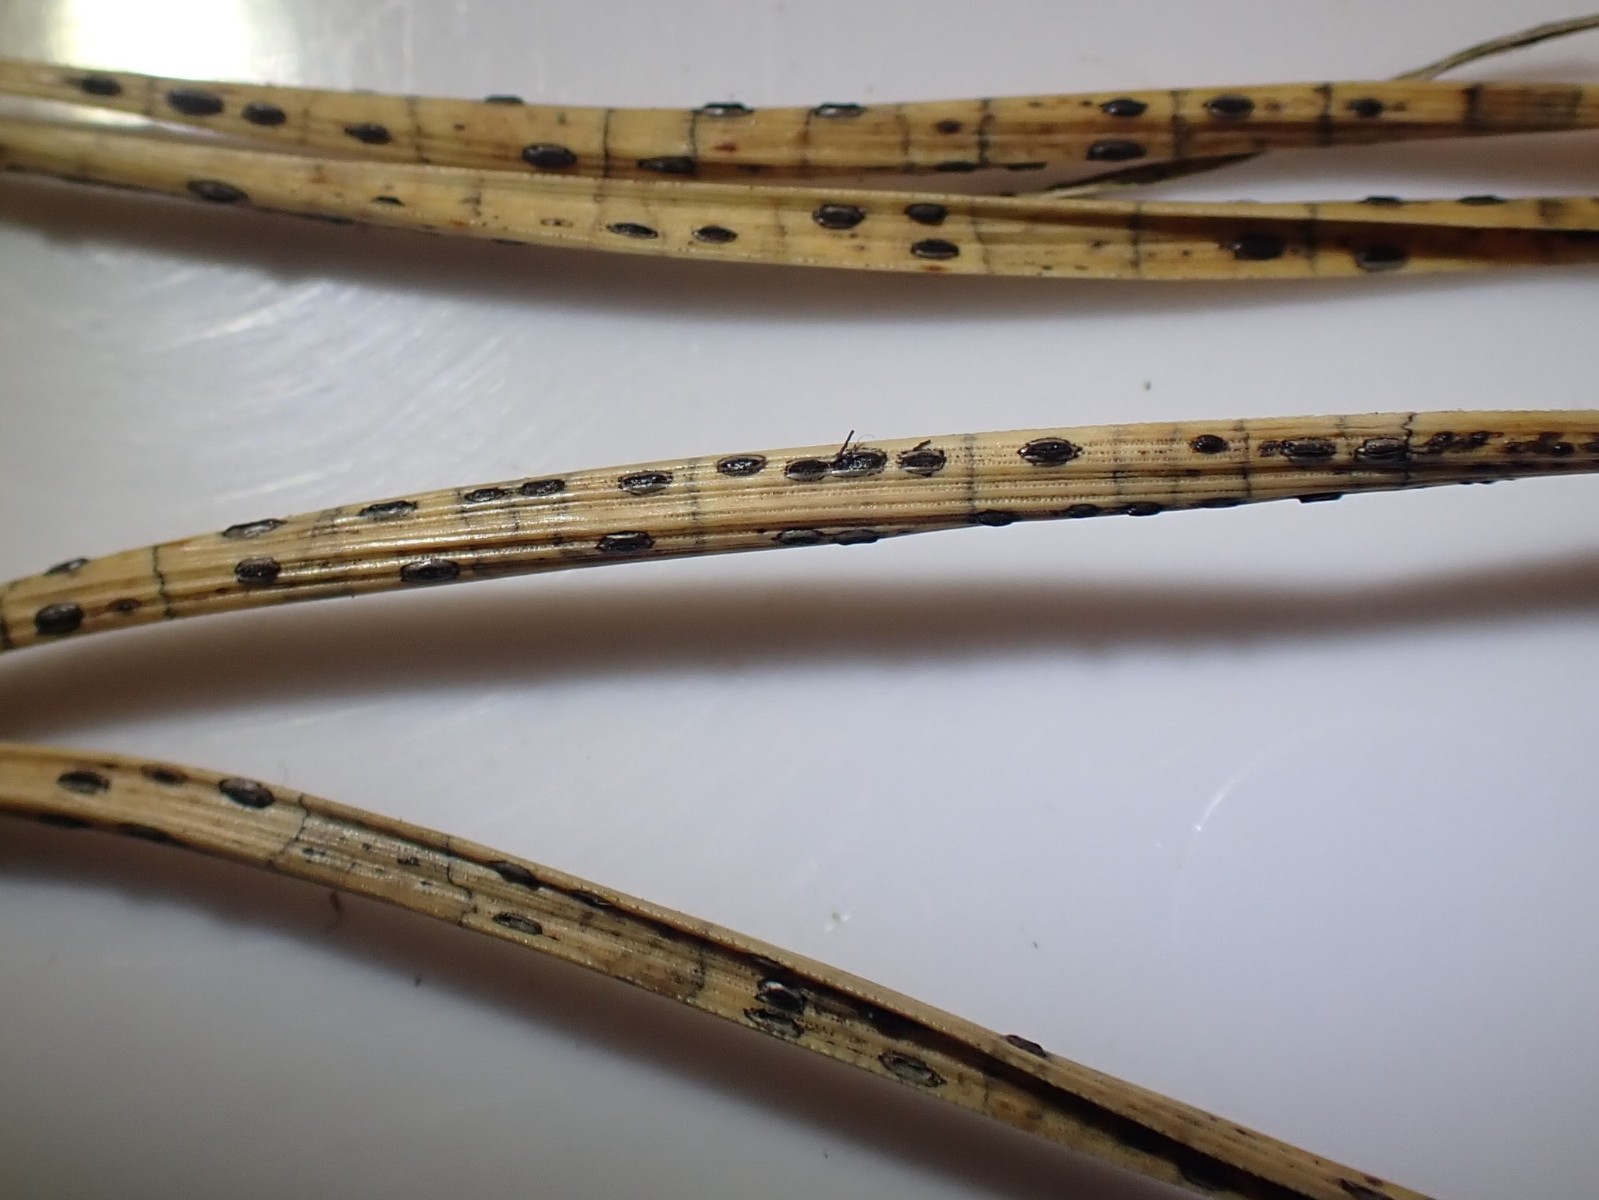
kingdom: Fungi
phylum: Ascomycota
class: Leotiomycetes
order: Rhytismatales
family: Rhytismataceae
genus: Lophodermium
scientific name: Lophodermium pinastri
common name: fyrre-fureplet
